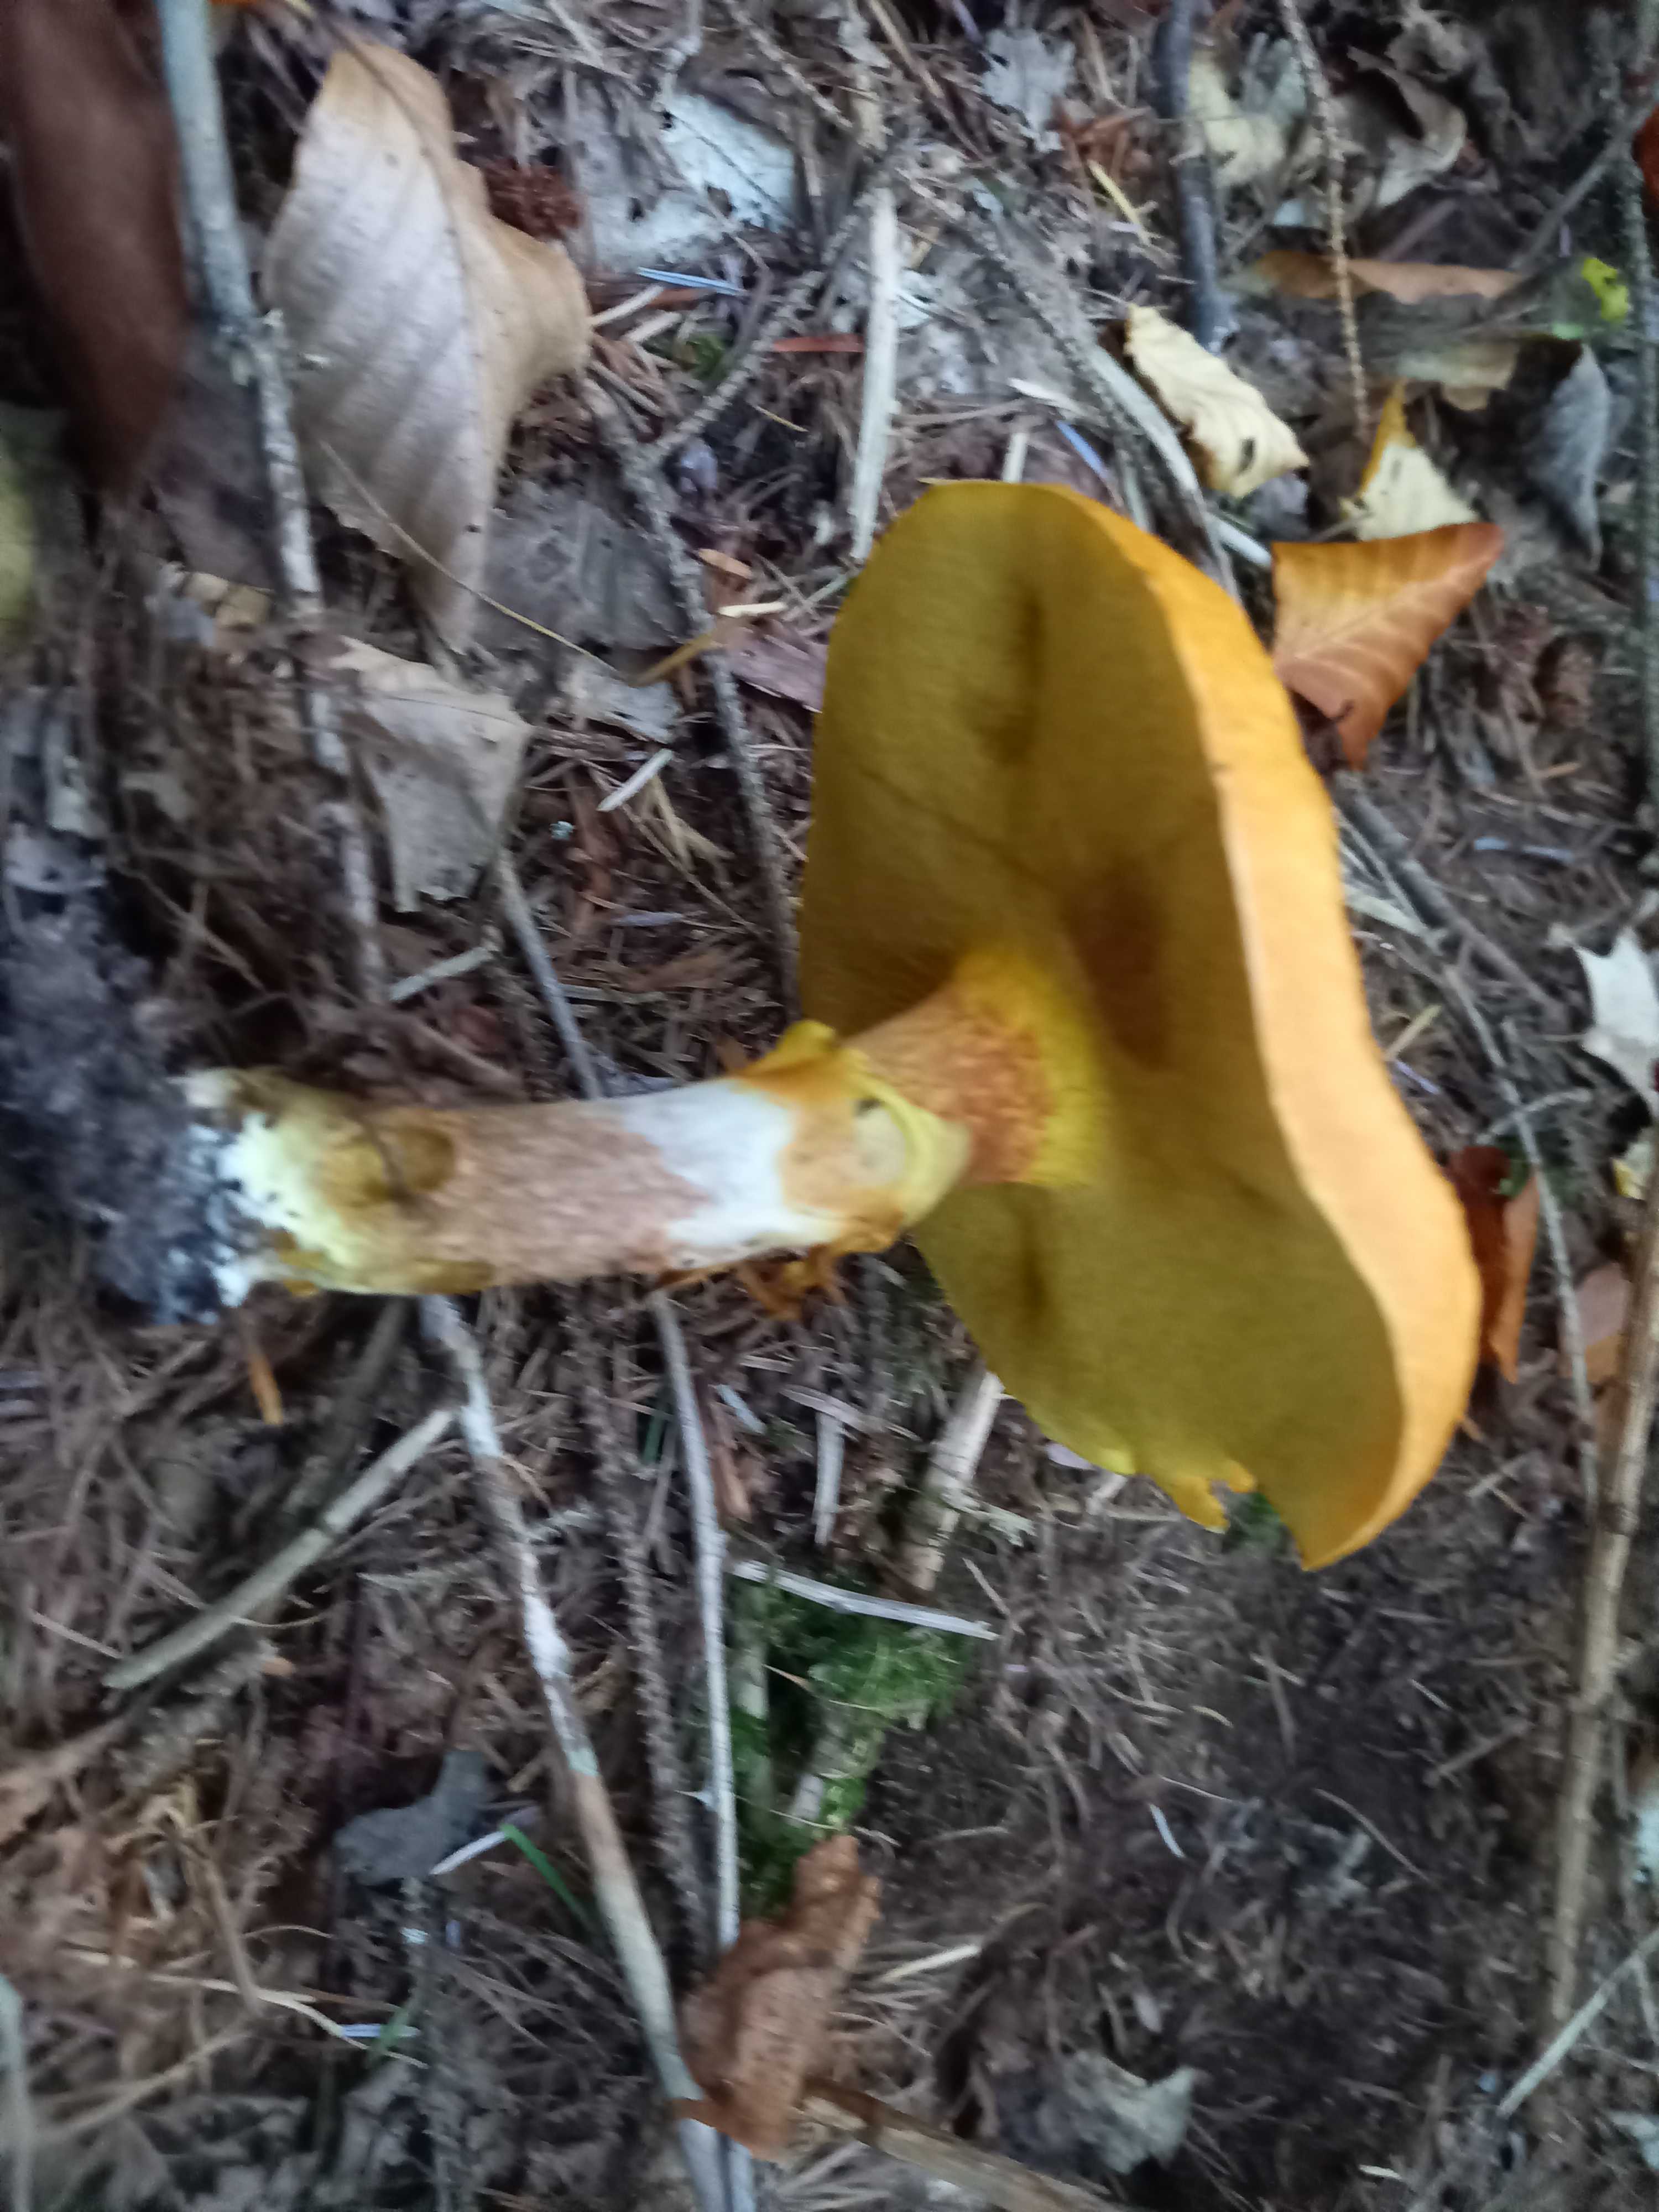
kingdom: Fungi
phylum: Basidiomycota
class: Agaricomycetes
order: Boletales
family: Suillaceae
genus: Suillus
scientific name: Suillus grevillei
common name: lærke-slimrørhat
